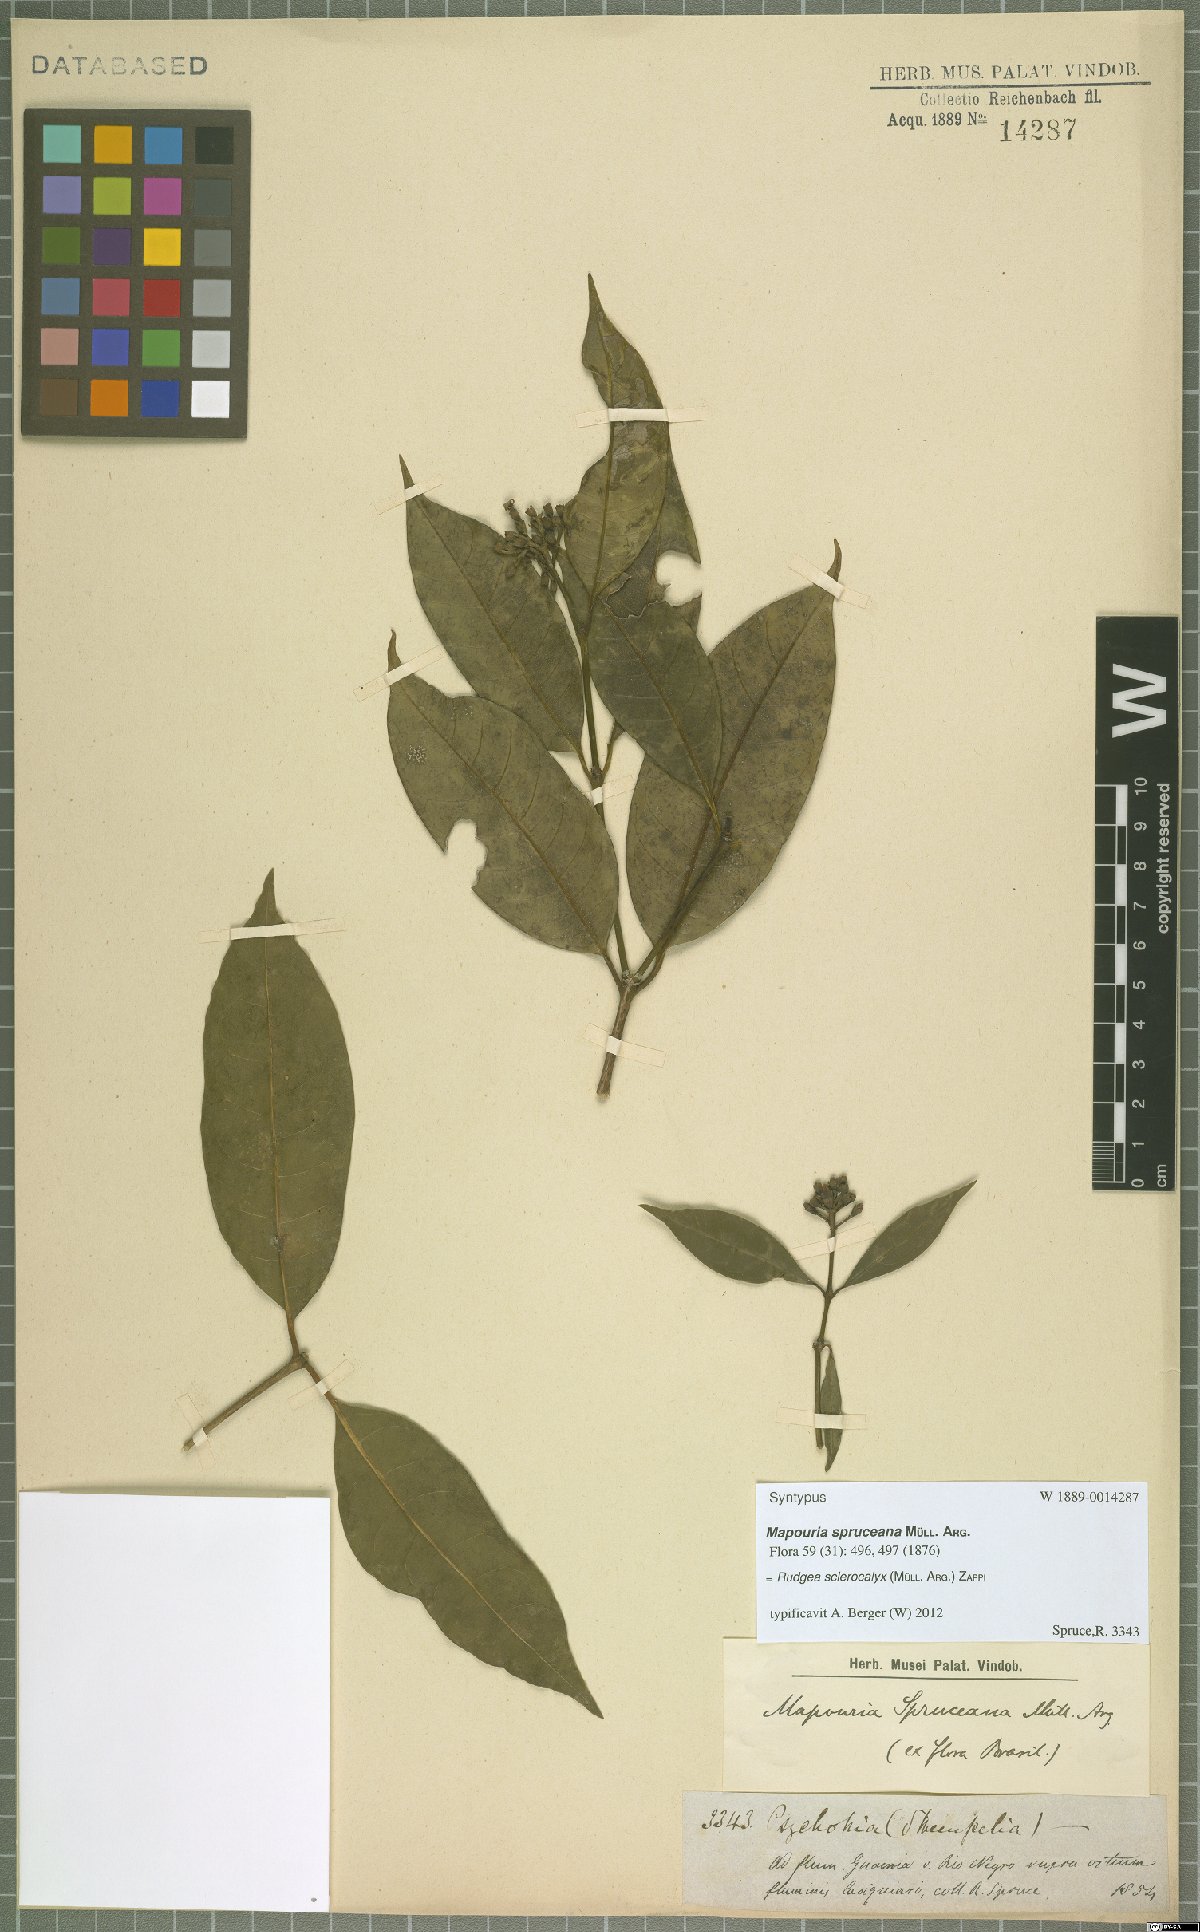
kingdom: Plantae
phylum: Tracheophyta
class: Magnoliopsida
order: Gentianales
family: Rubiaceae
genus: Rudgea
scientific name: Rudgea sclerocalyx
